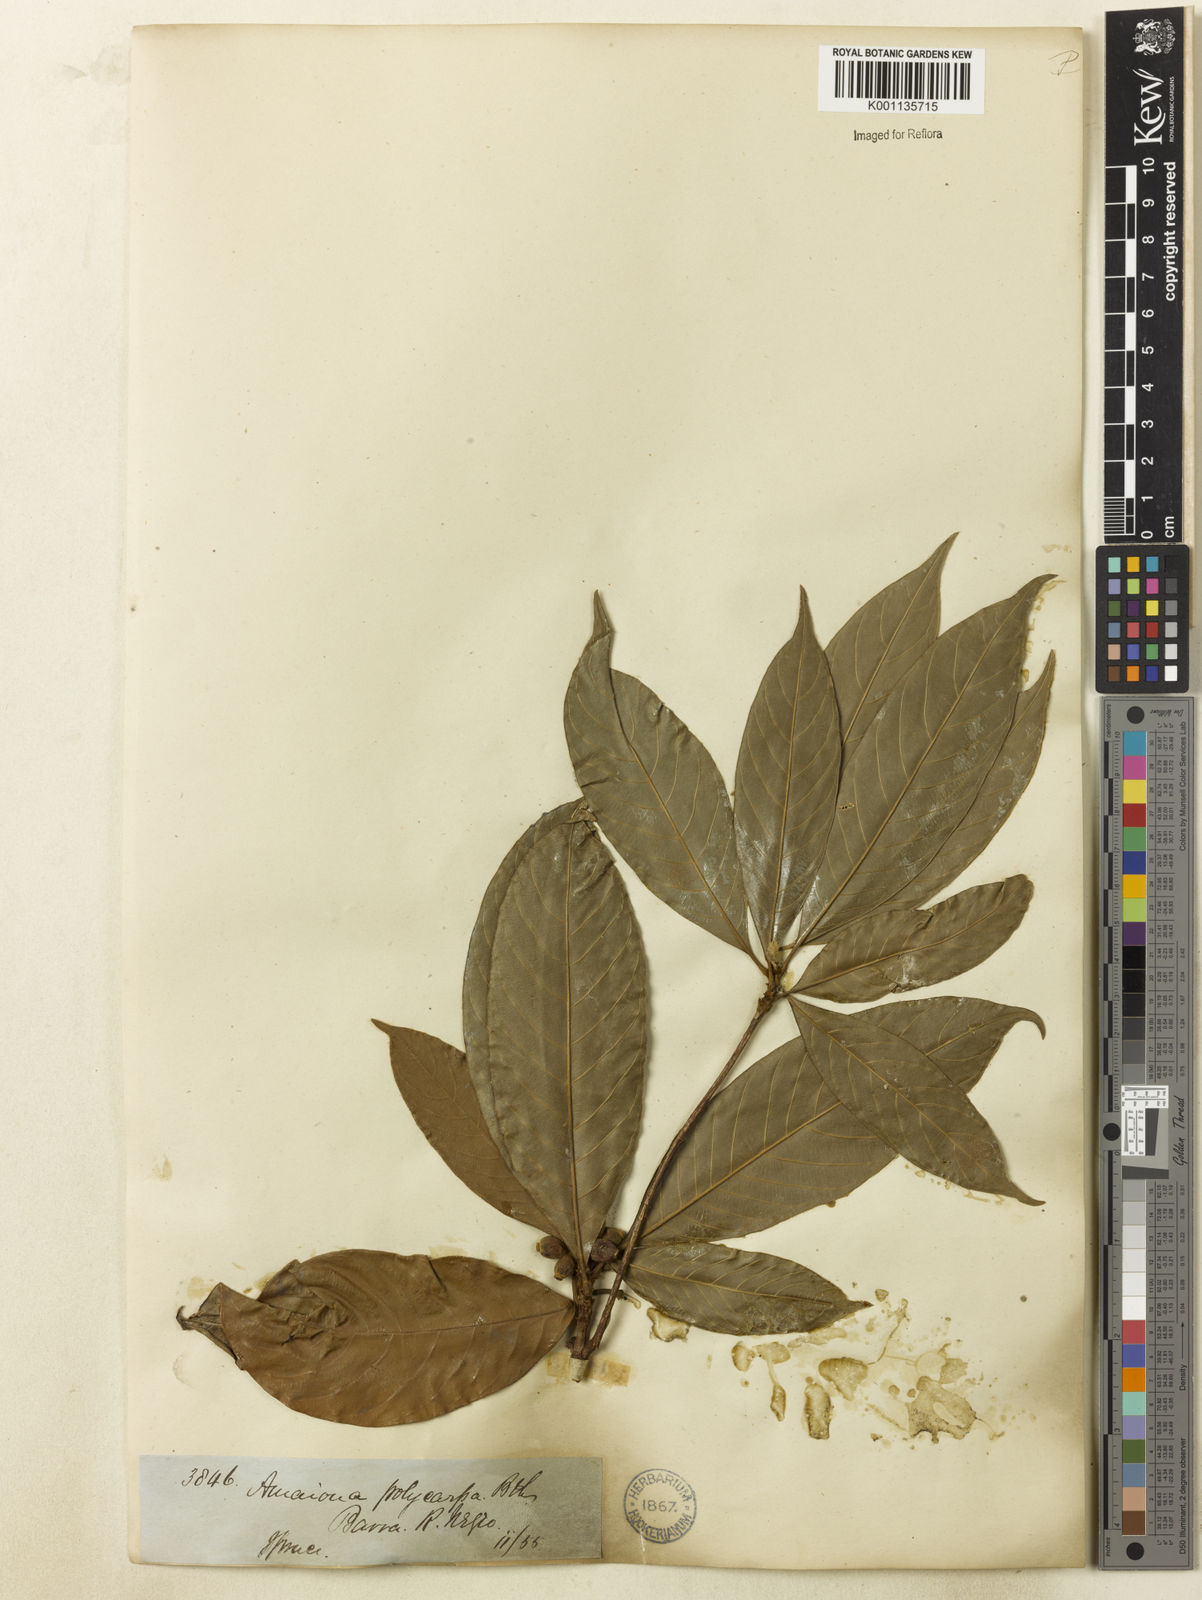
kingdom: Plantae
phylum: Tracheophyta
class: Magnoliopsida
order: Gentianales
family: Rubiaceae
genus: Amaioua
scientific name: Amaioua
